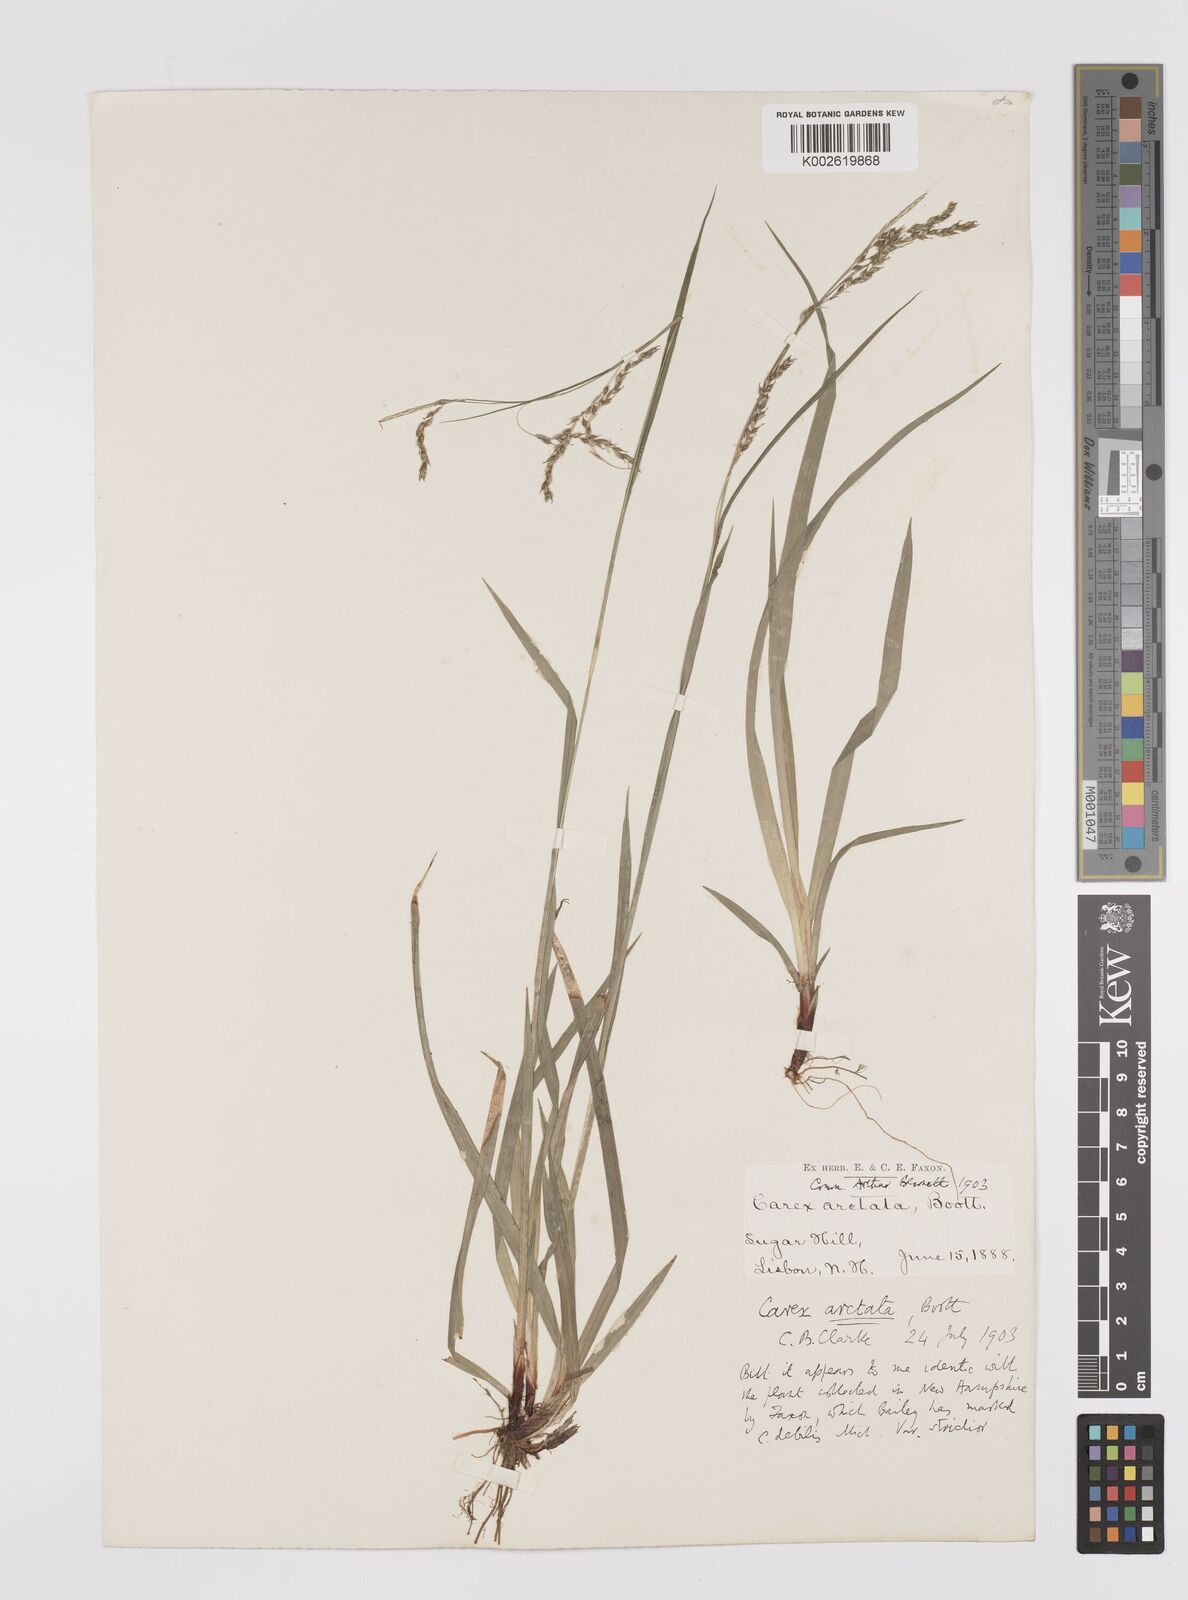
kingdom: Plantae
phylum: Tracheophyta
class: Liliopsida
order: Poales
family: Cyperaceae
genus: Carex
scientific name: Carex arctata
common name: Black sedge
